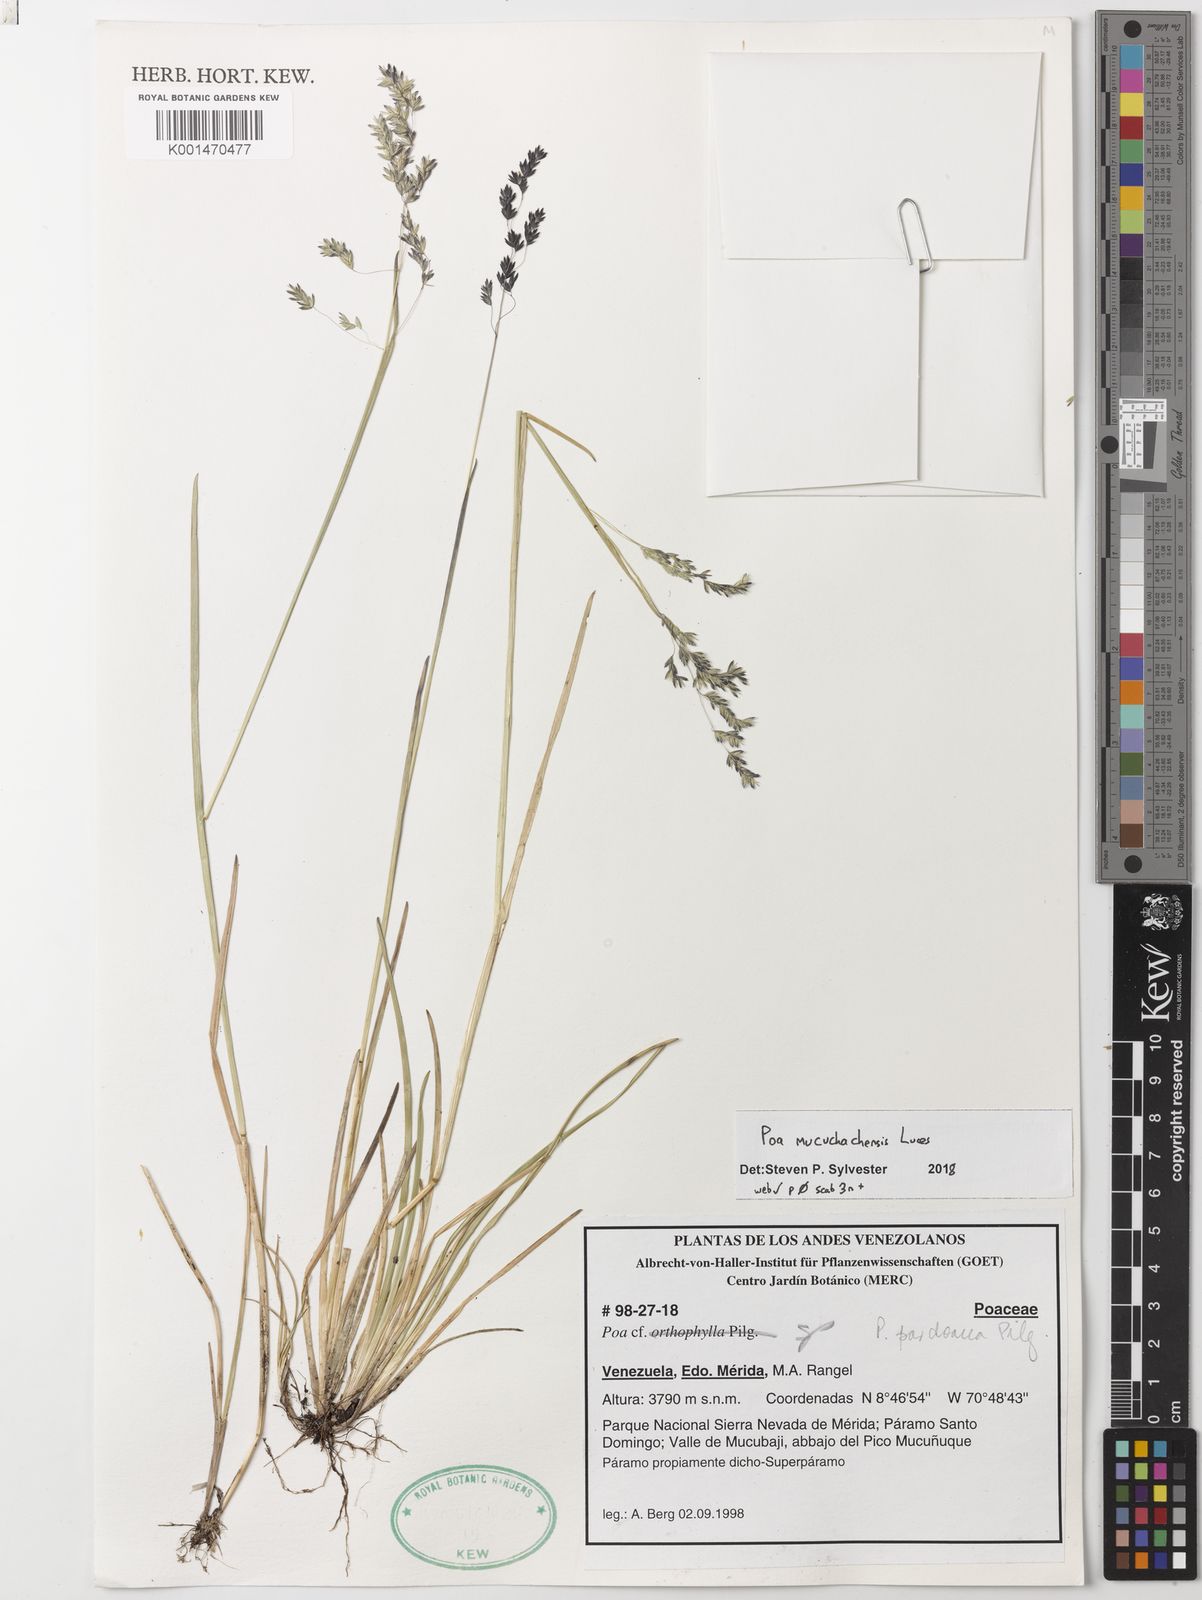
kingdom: Plantae
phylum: Tracheophyta
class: Liliopsida
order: Poales
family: Poaceae
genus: Poa
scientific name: Poa mucuchachensis
